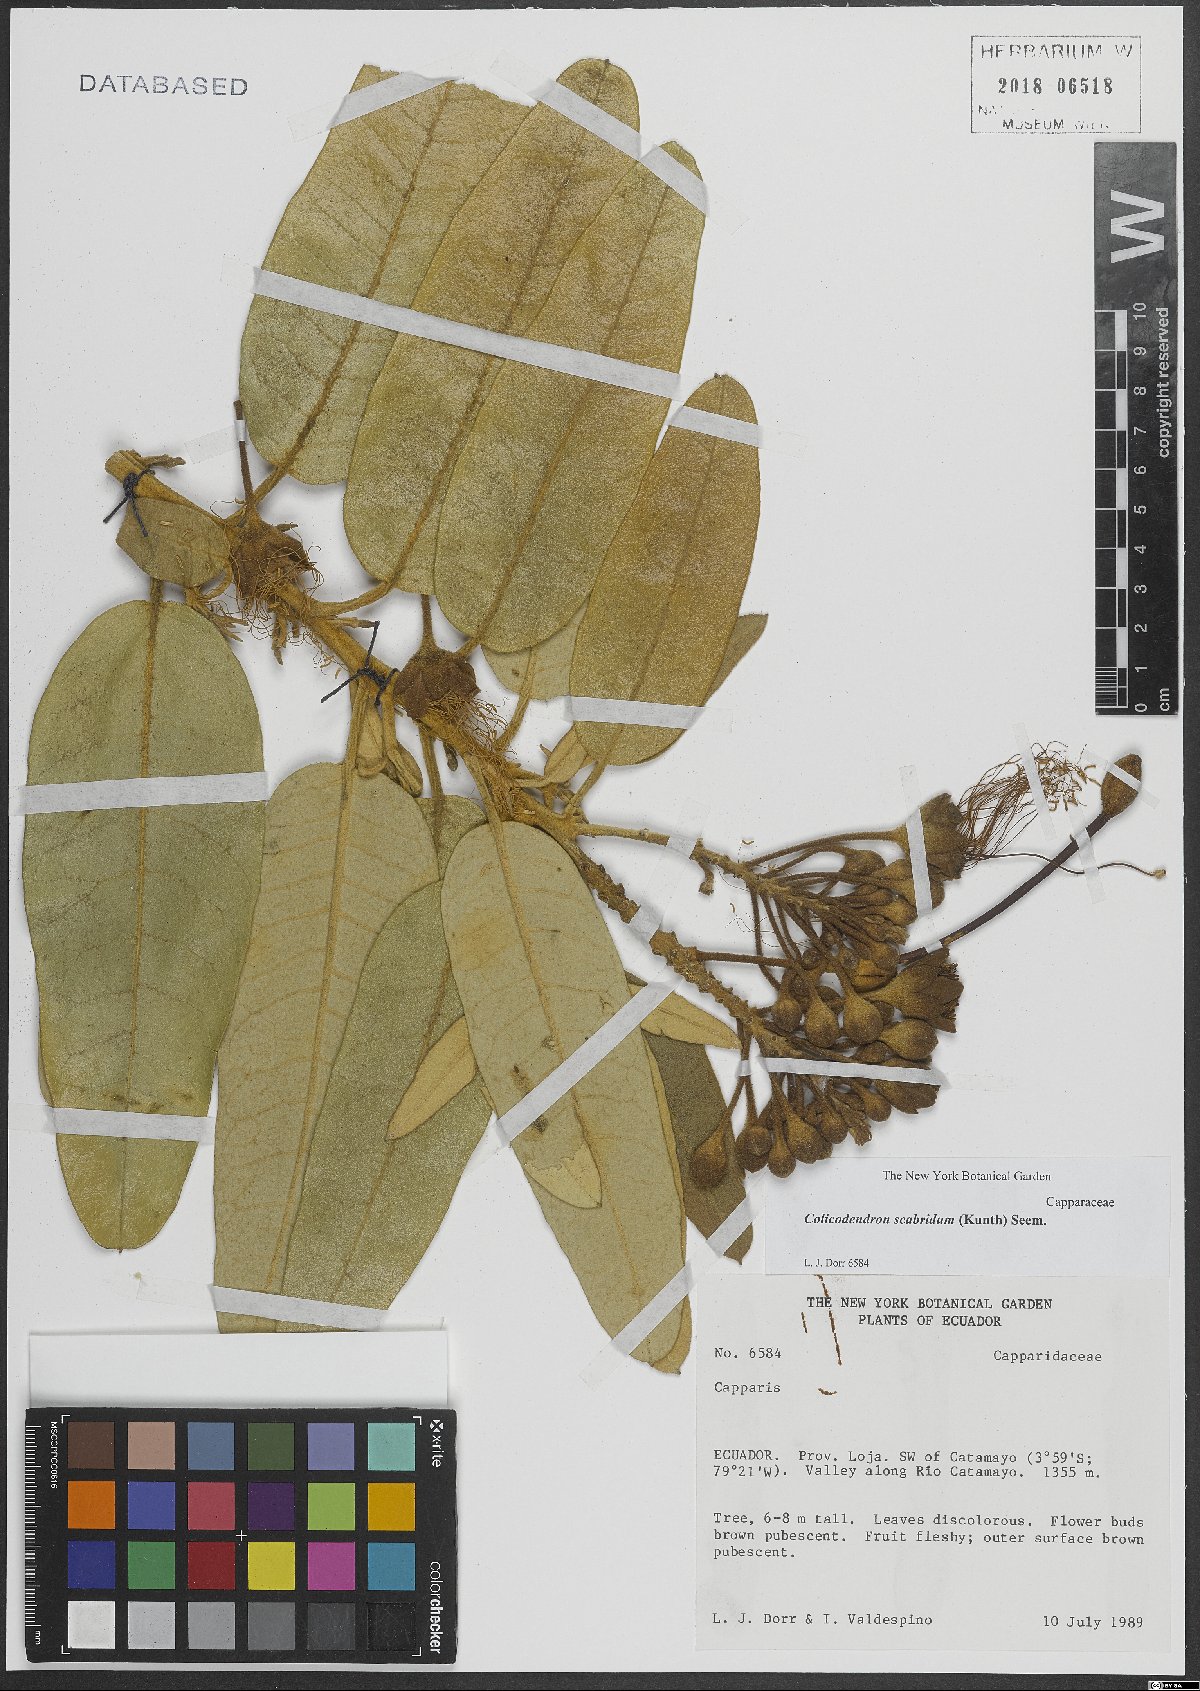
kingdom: Plantae
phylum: Tracheophyta
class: Magnoliopsida
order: Brassicales
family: Capparaceae
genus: Colicodendron
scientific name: Colicodendron scabridum
